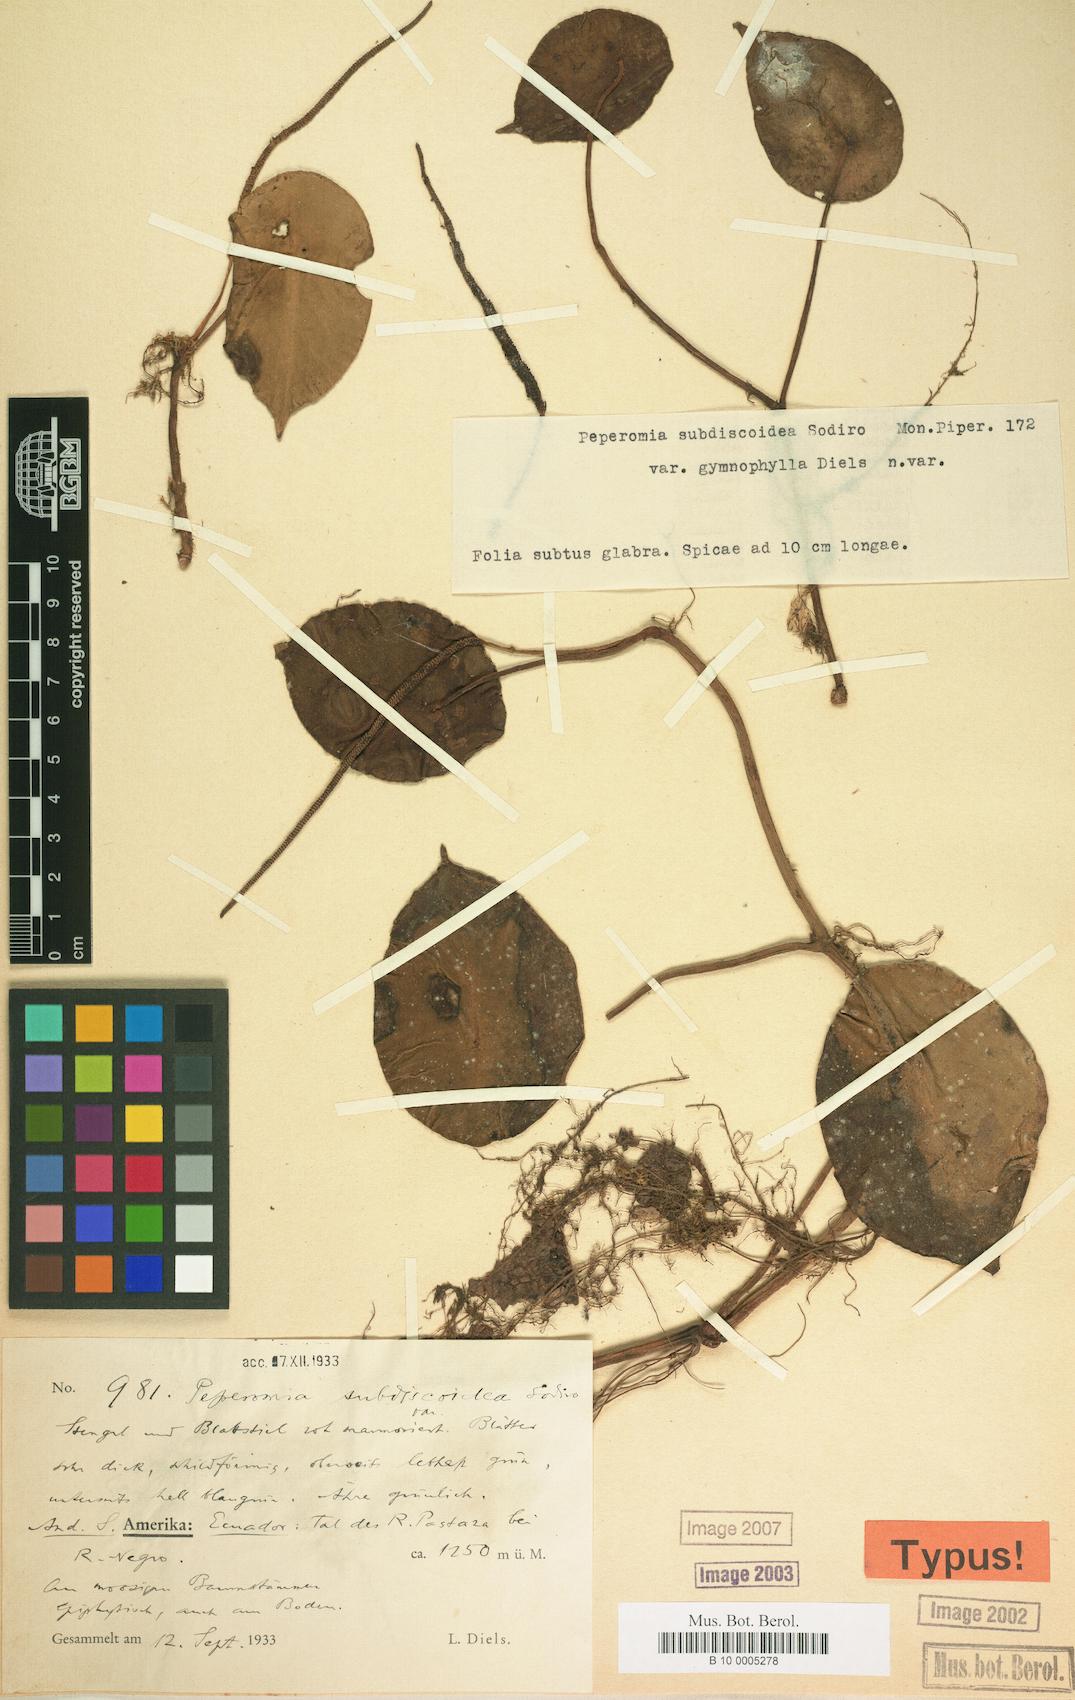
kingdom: Plantae
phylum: Tracheophyta
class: Magnoliopsida
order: Piperales
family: Piperaceae
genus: Peperomia
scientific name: Peperomia stelechophila
